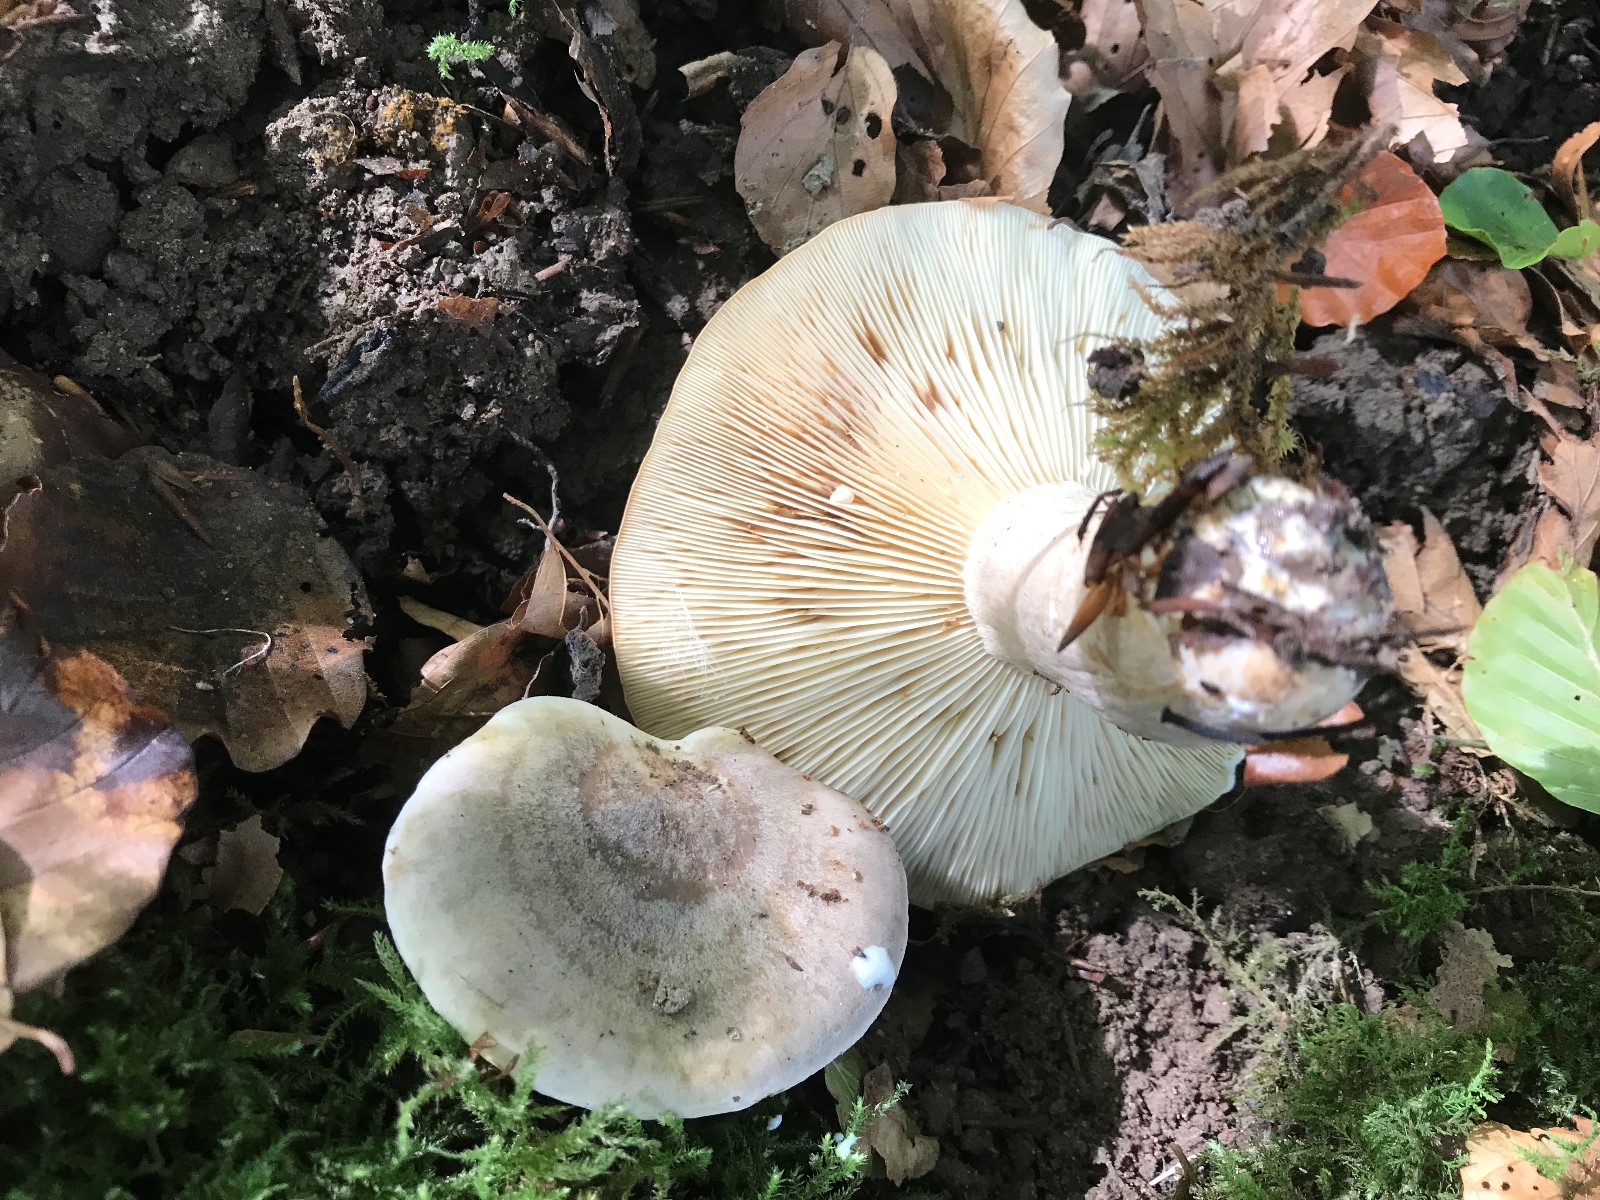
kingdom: Fungi
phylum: Basidiomycota
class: Agaricomycetes
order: Russulales
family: Russulaceae
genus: Lactarius
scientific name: Lactarius fluens
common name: lysrandet mælkehat
